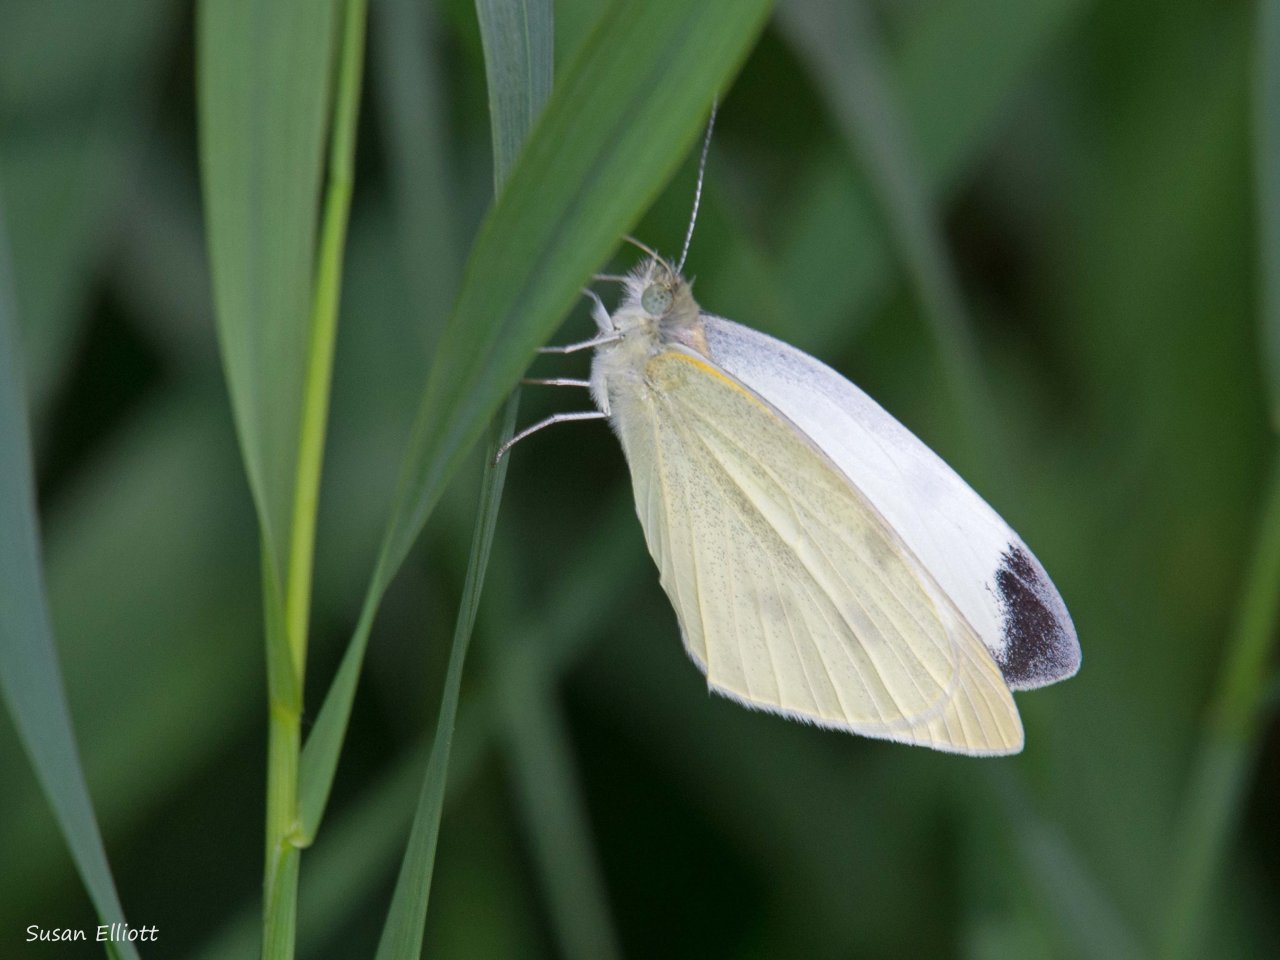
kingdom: Animalia
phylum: Arthropoda
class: Insecta
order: Lepidoptera
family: Pieridae
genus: Pieris
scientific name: Pieris rapae
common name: Cabbage White
